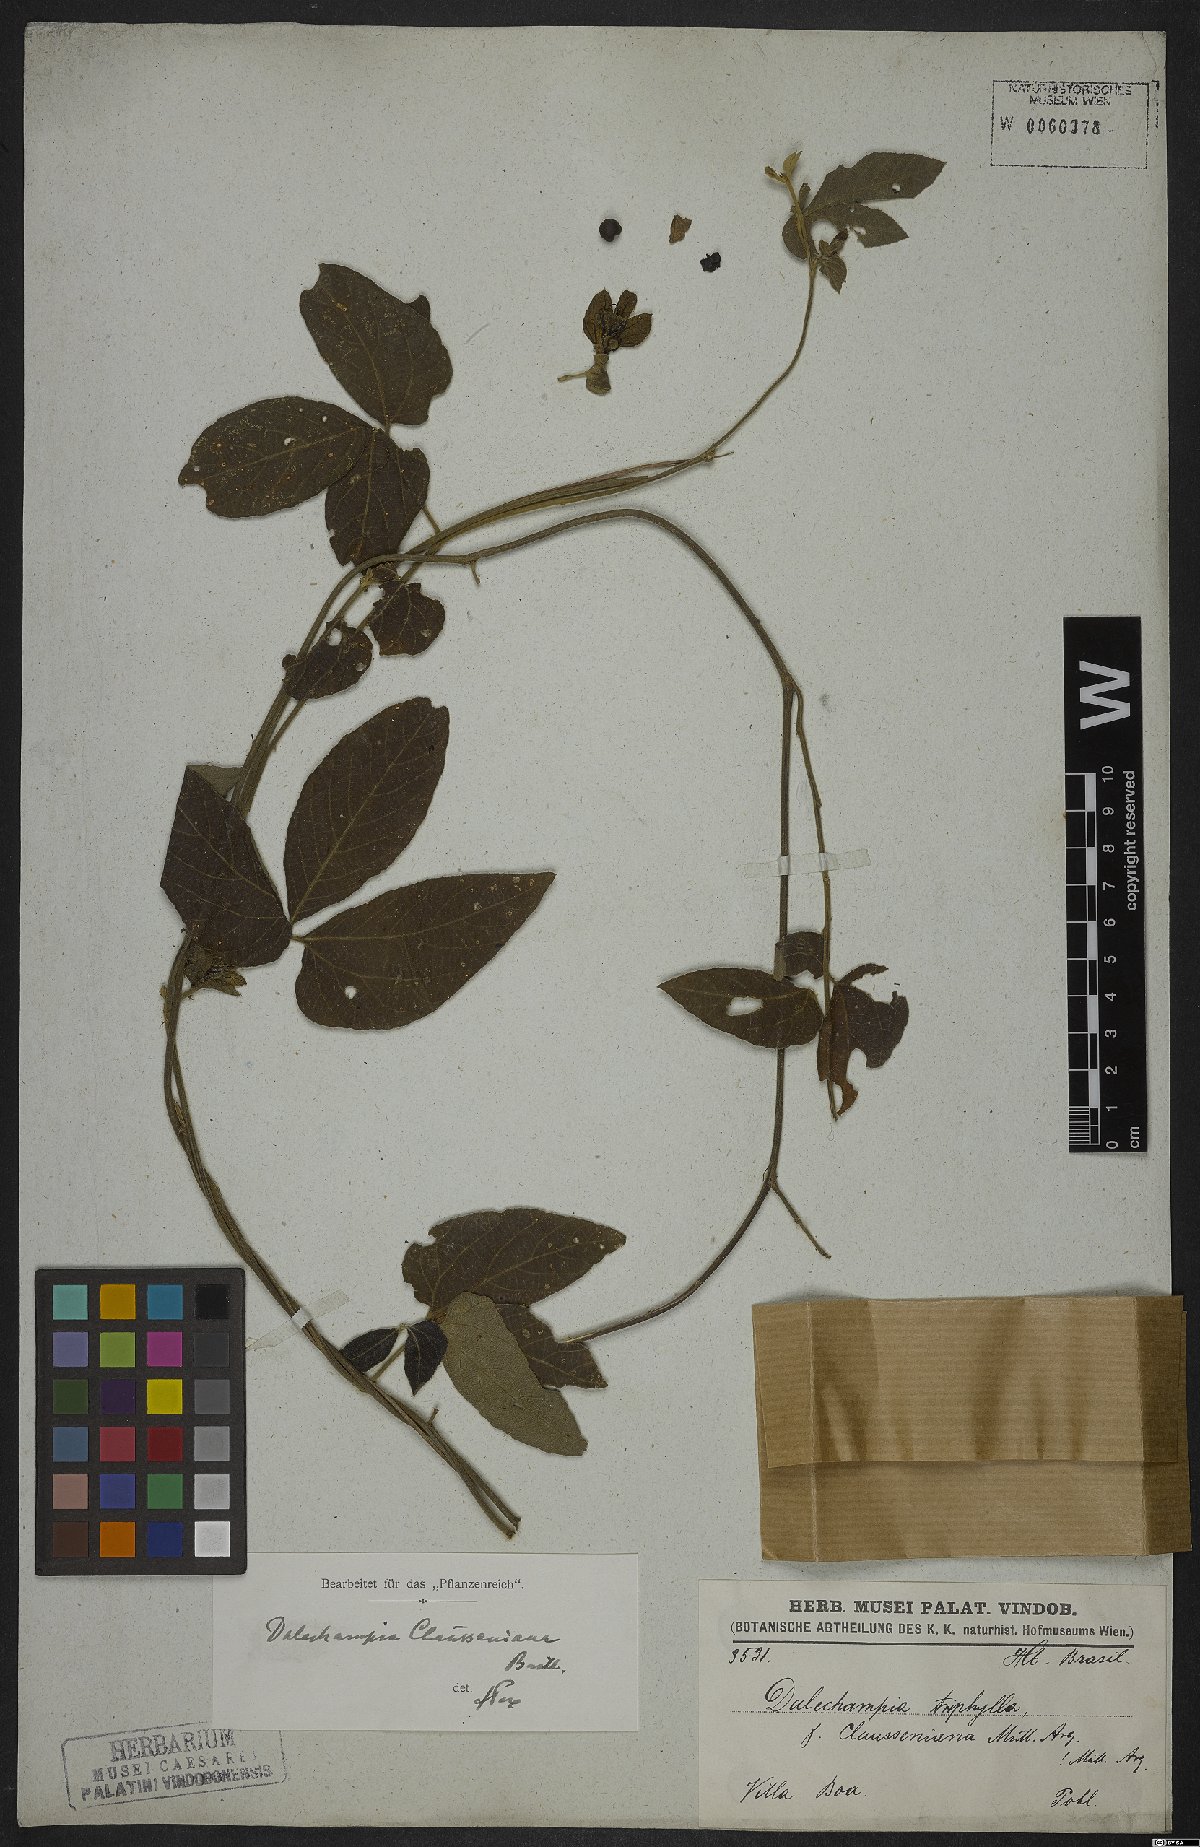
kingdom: Plantae
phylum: Tracheophyta
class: Magnoliopsida
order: Malpighiales
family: Euphorbiaceae
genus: Dalechampia
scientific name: Dalechampia clausseniana
